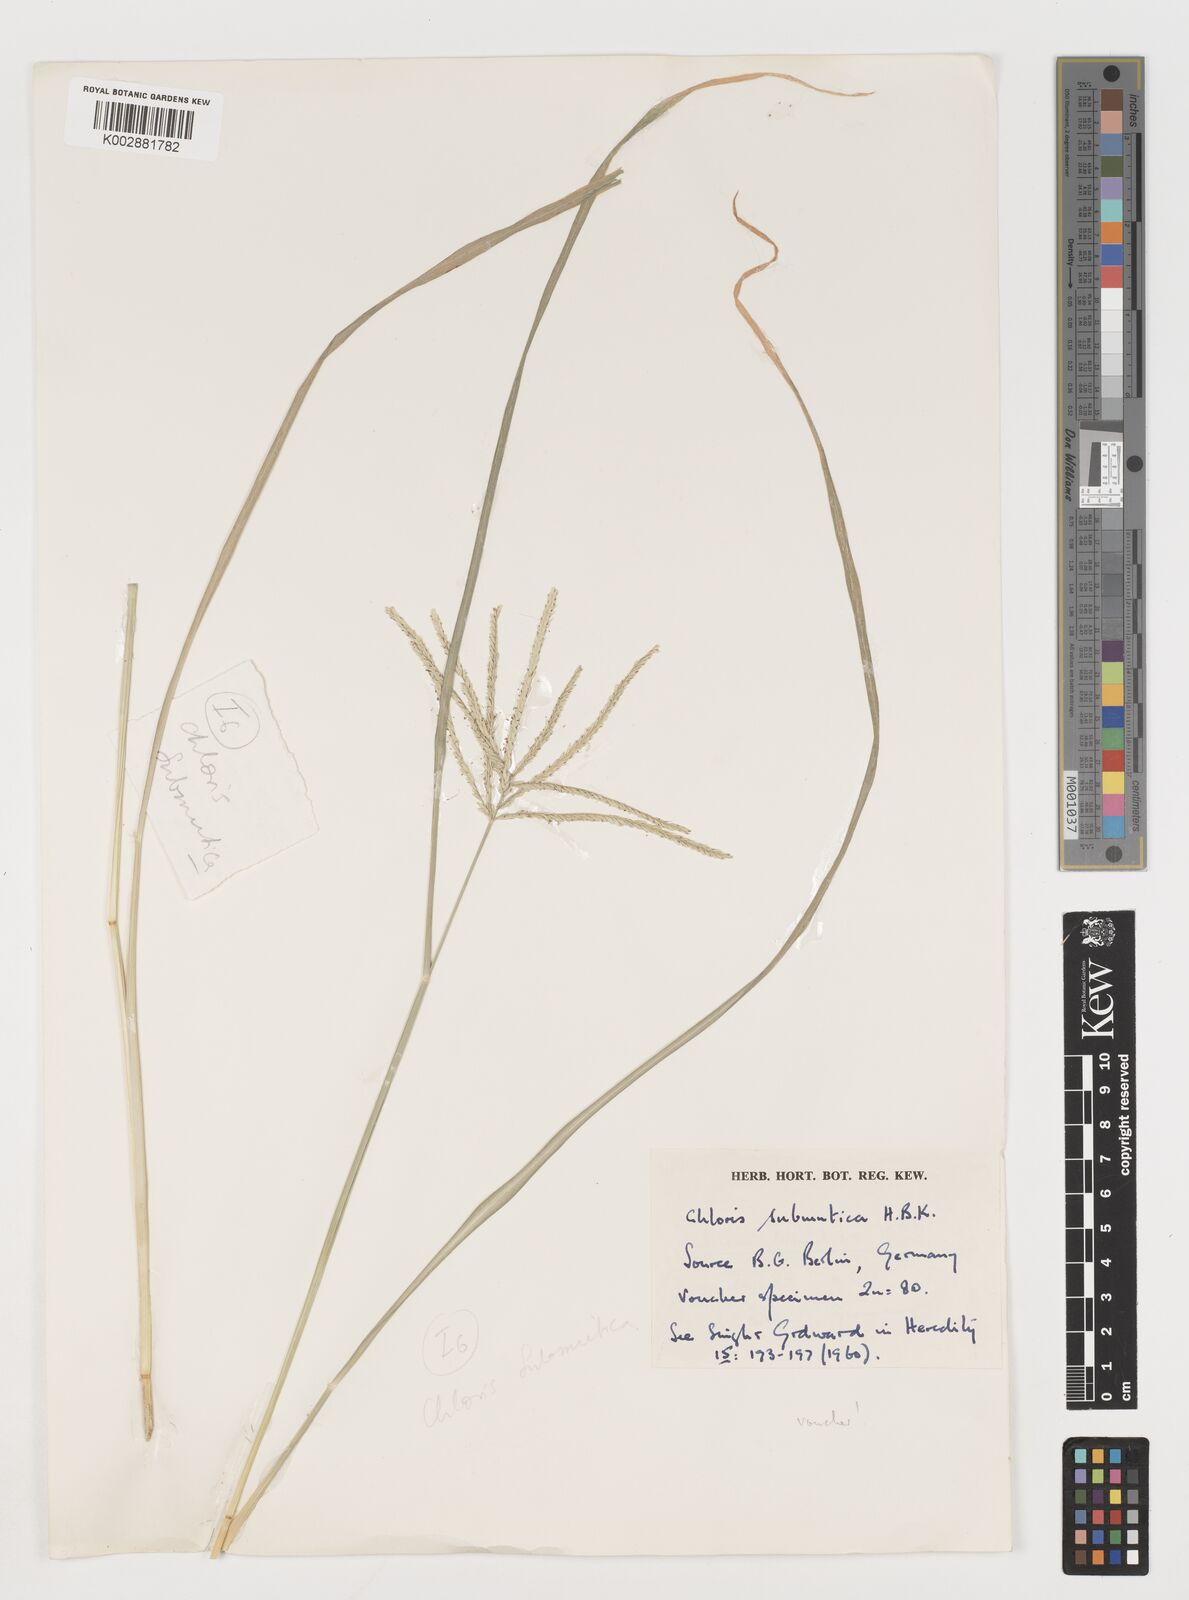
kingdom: Plantae
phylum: Tracheophyta
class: Liliopsida
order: Poales
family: Poaceae
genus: Chloris
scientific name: Chloris submutica
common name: Mexican windmill grass
